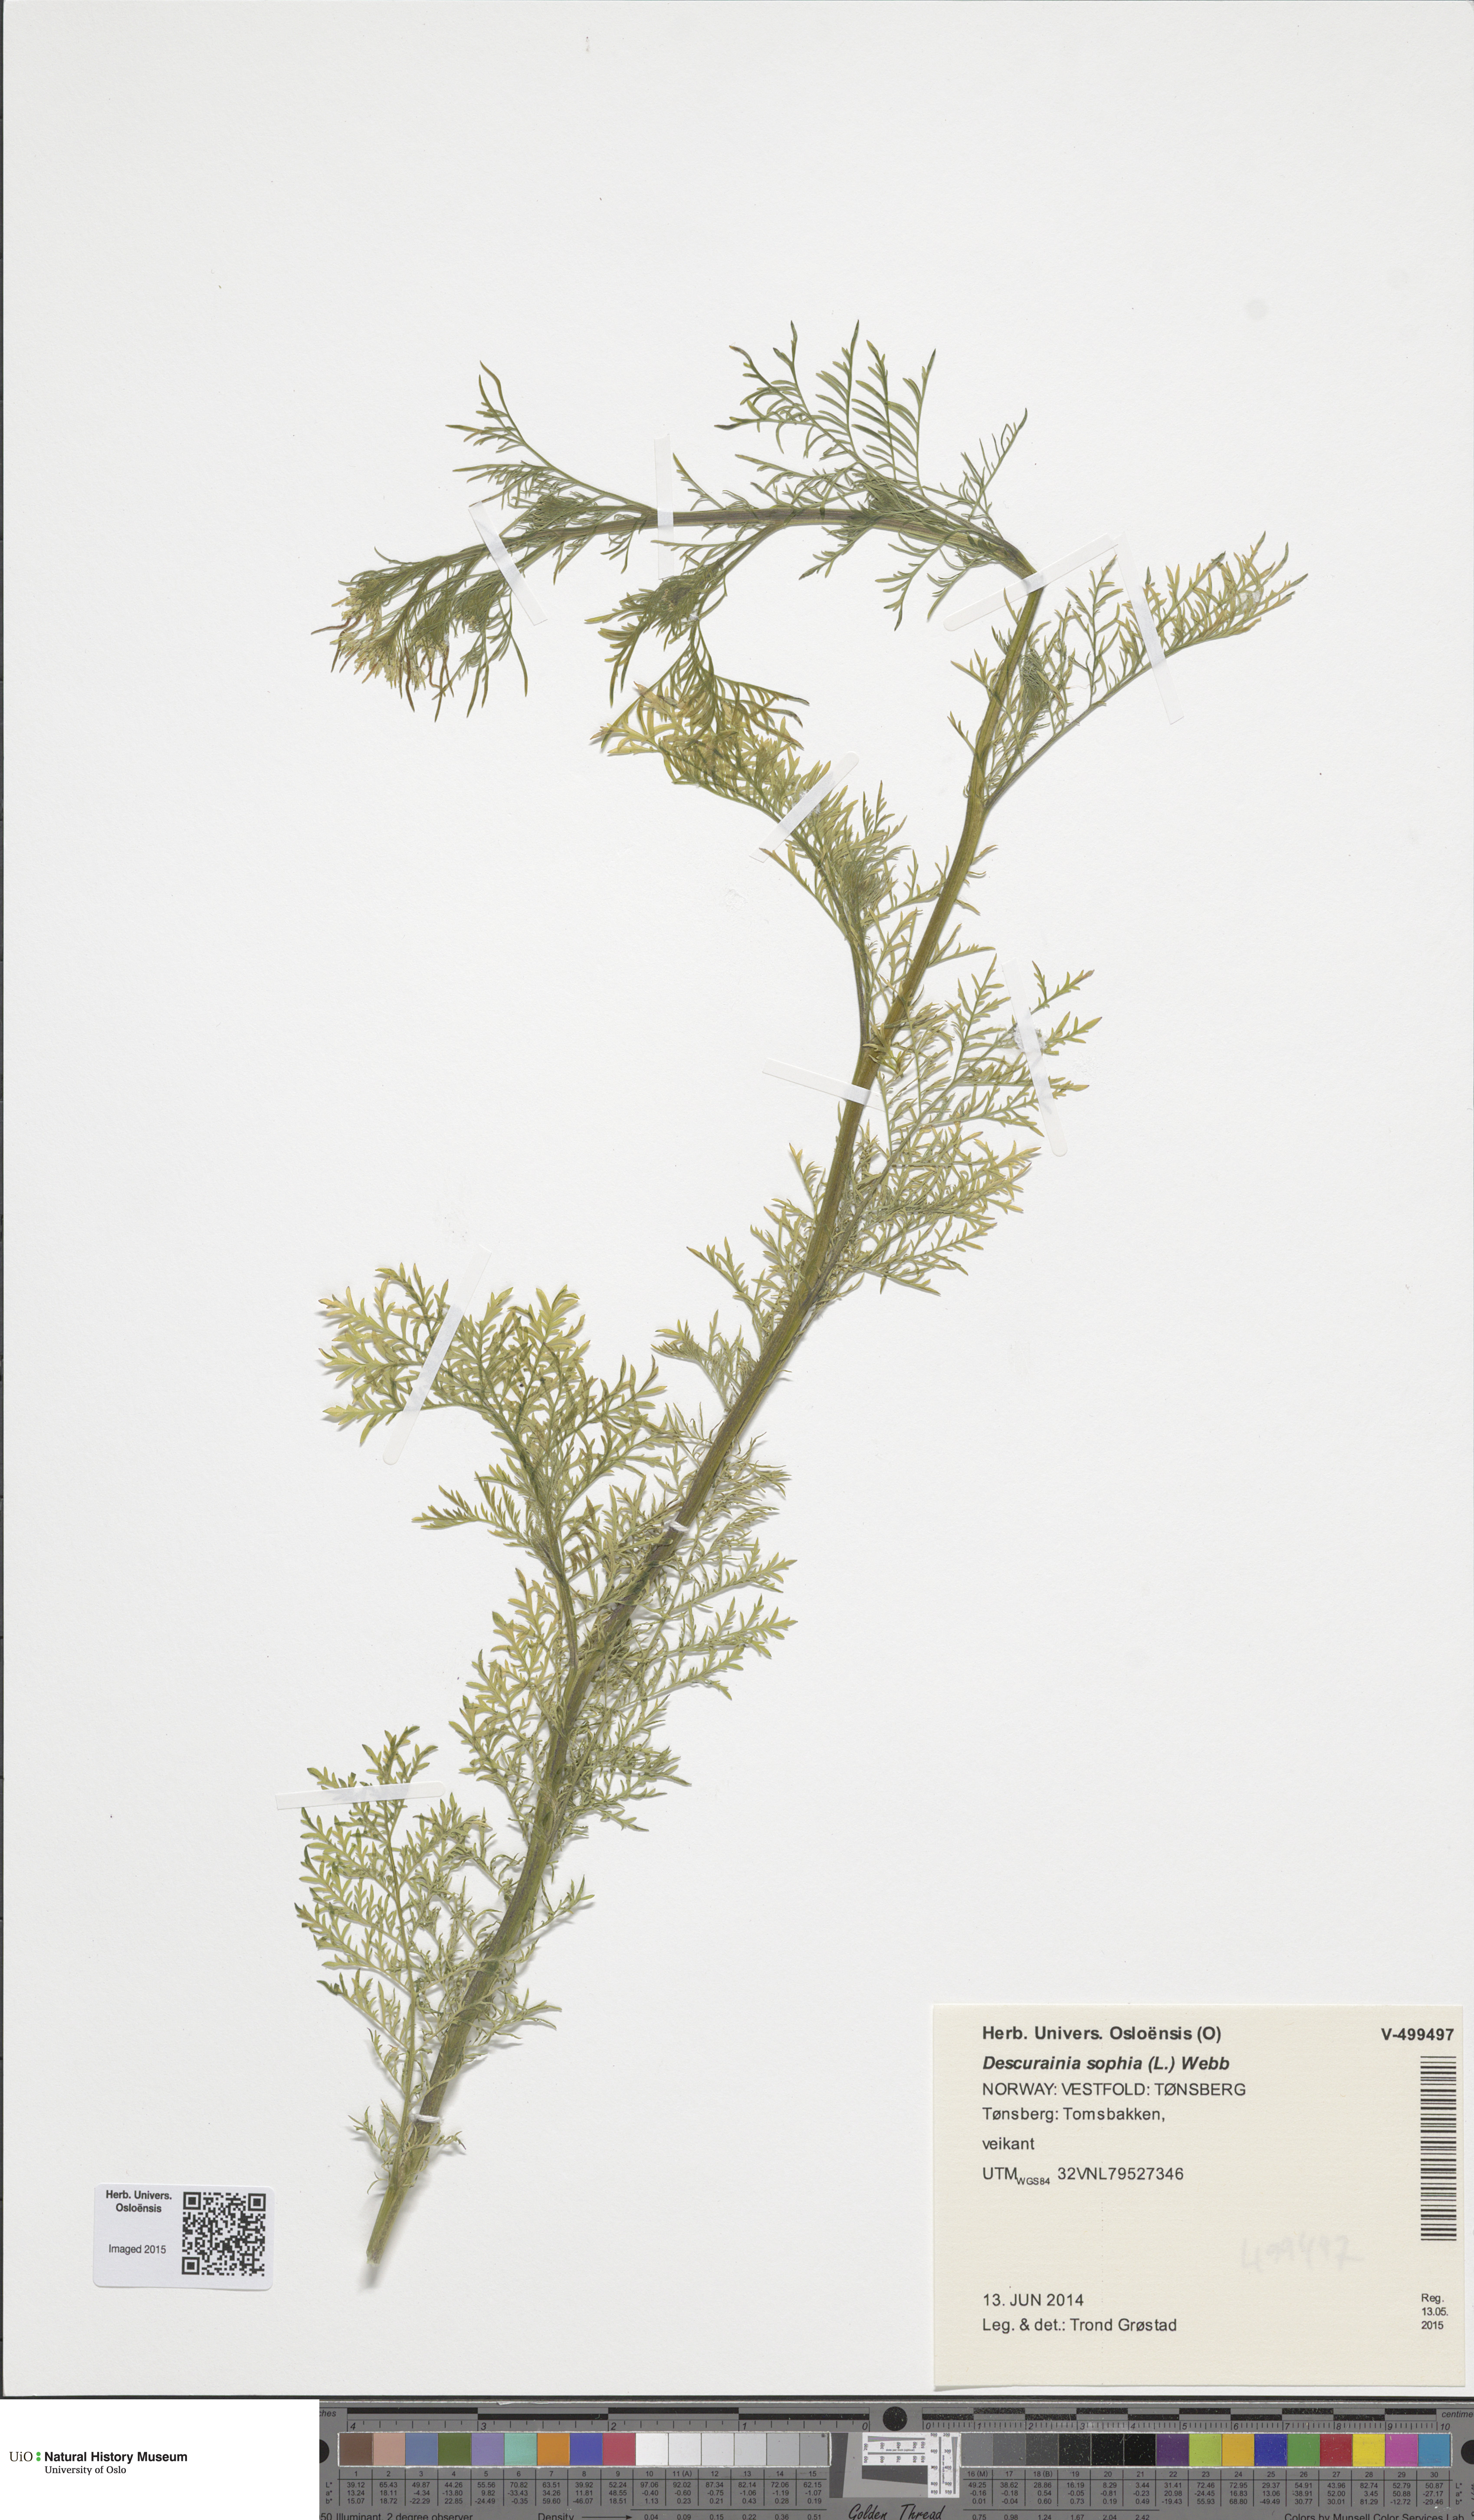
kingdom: Plantae
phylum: Tracheophyta
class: Magnoliopsida
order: Brassicales
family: Brassicaceae
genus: Descurainia
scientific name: Descurainia sophia
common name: Flixweed
